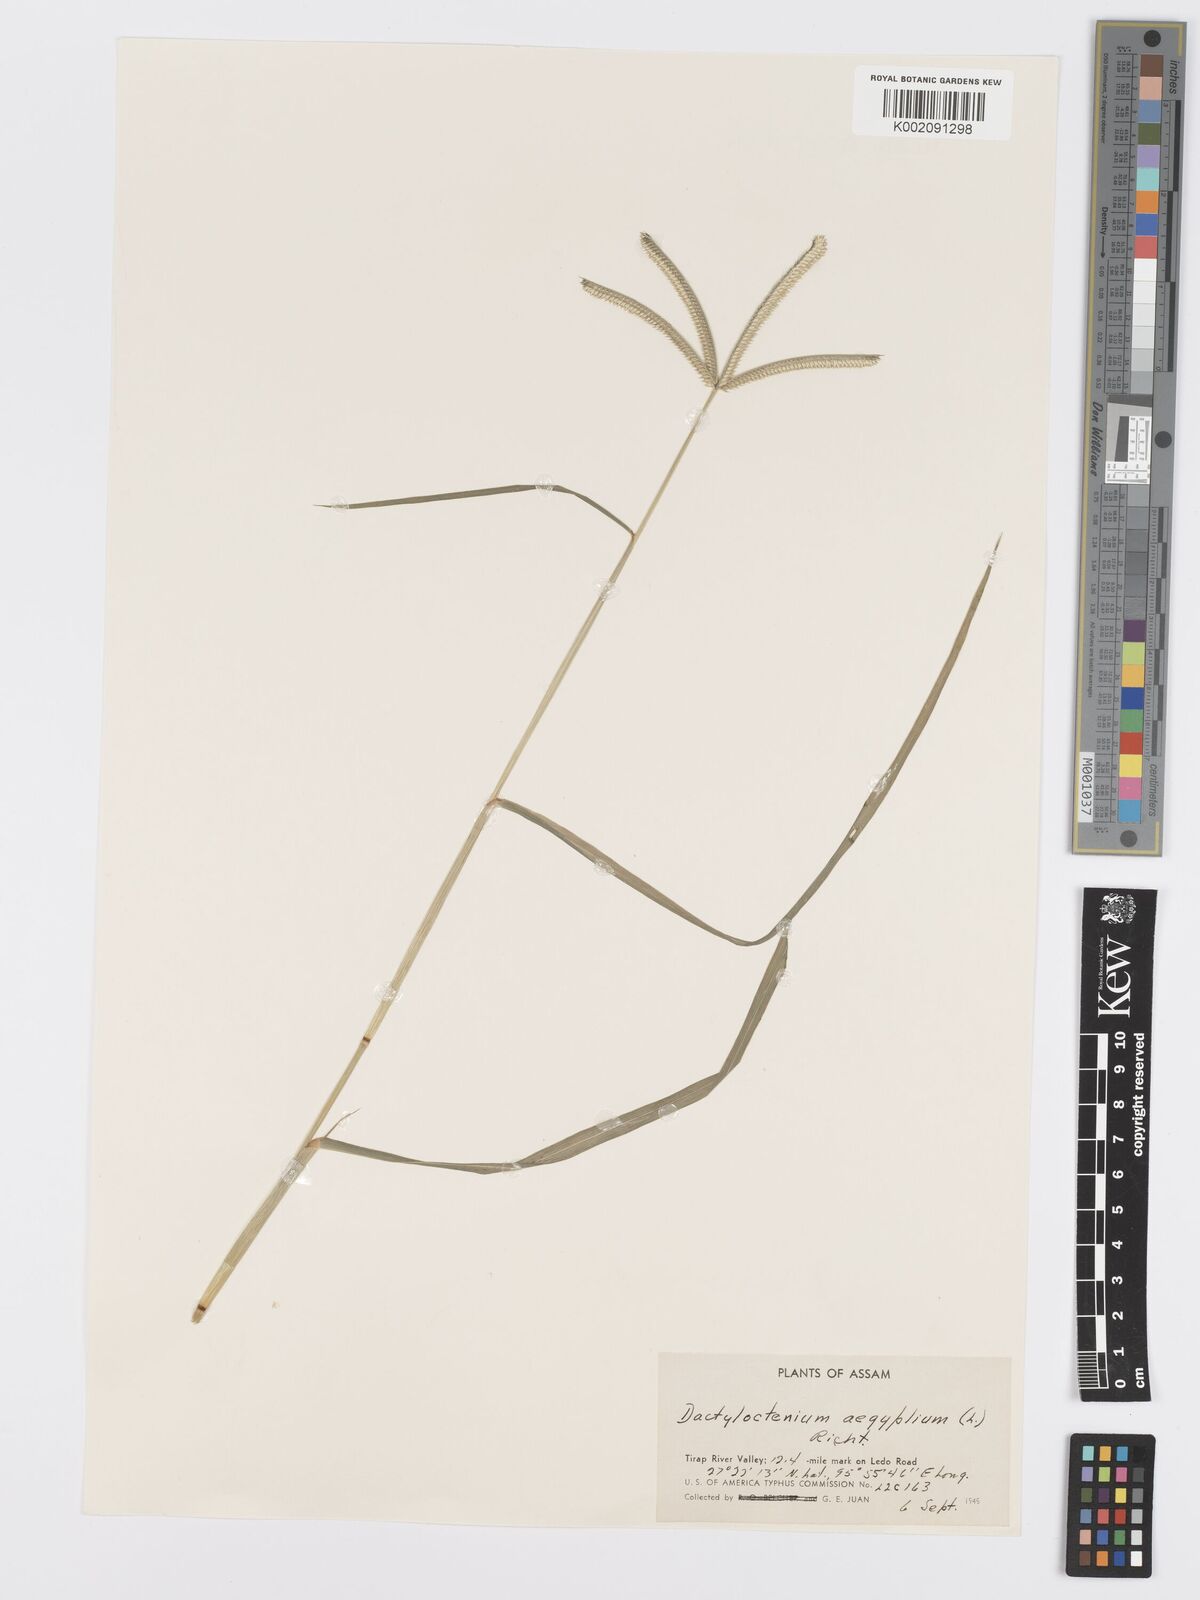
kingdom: Plantae
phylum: Tracheophyta
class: Liliopsida
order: Poales
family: Poaceae
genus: Dactyloctenium
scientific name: Dactyloctenium aegyptium
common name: Egyptian grass
